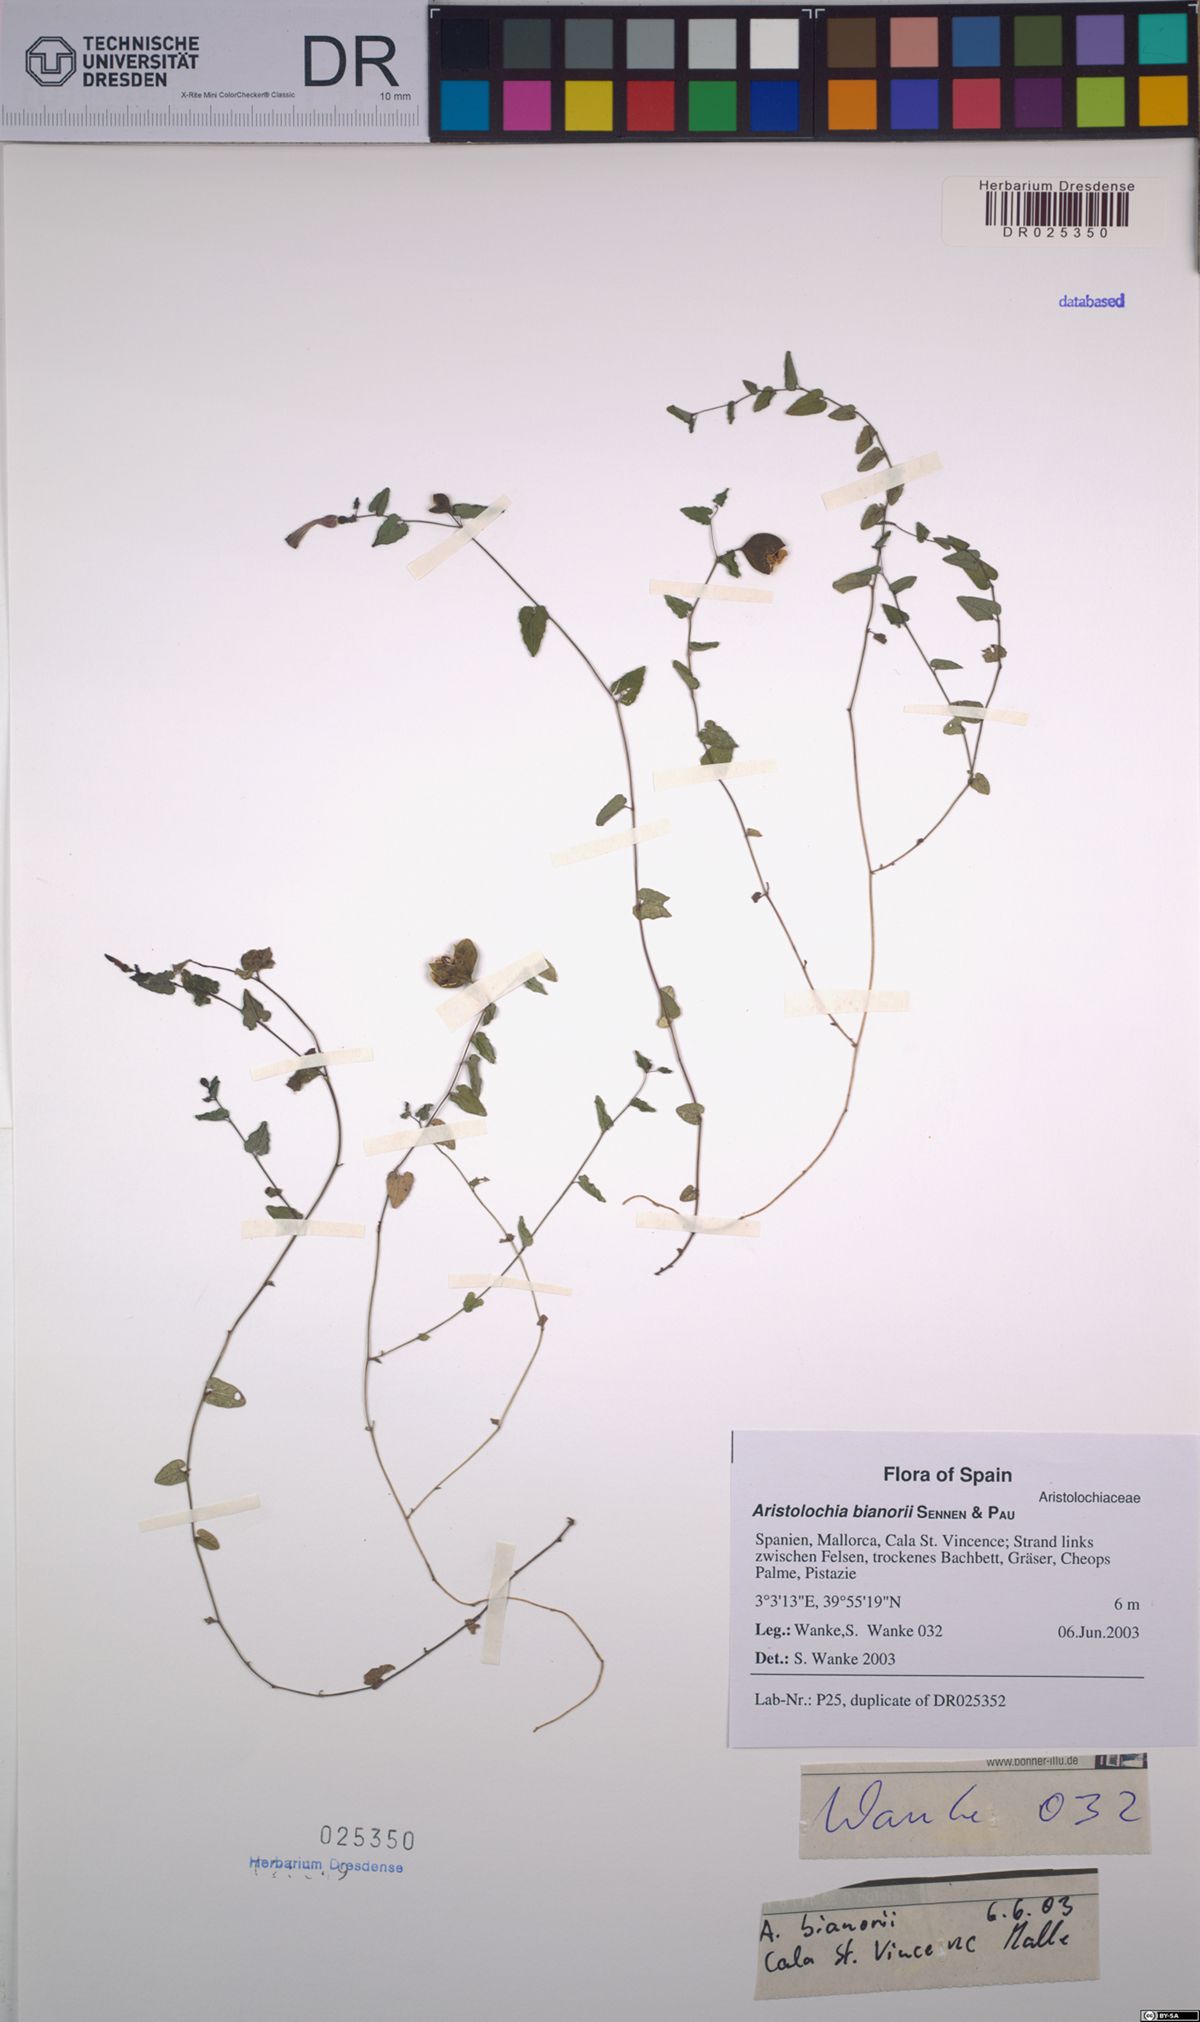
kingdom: Plantae
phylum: Tracheophyta
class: Magnoliopsida
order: Piperales
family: Aristolochiaceae
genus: Aristolochia
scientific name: Aristolochia bianorii
